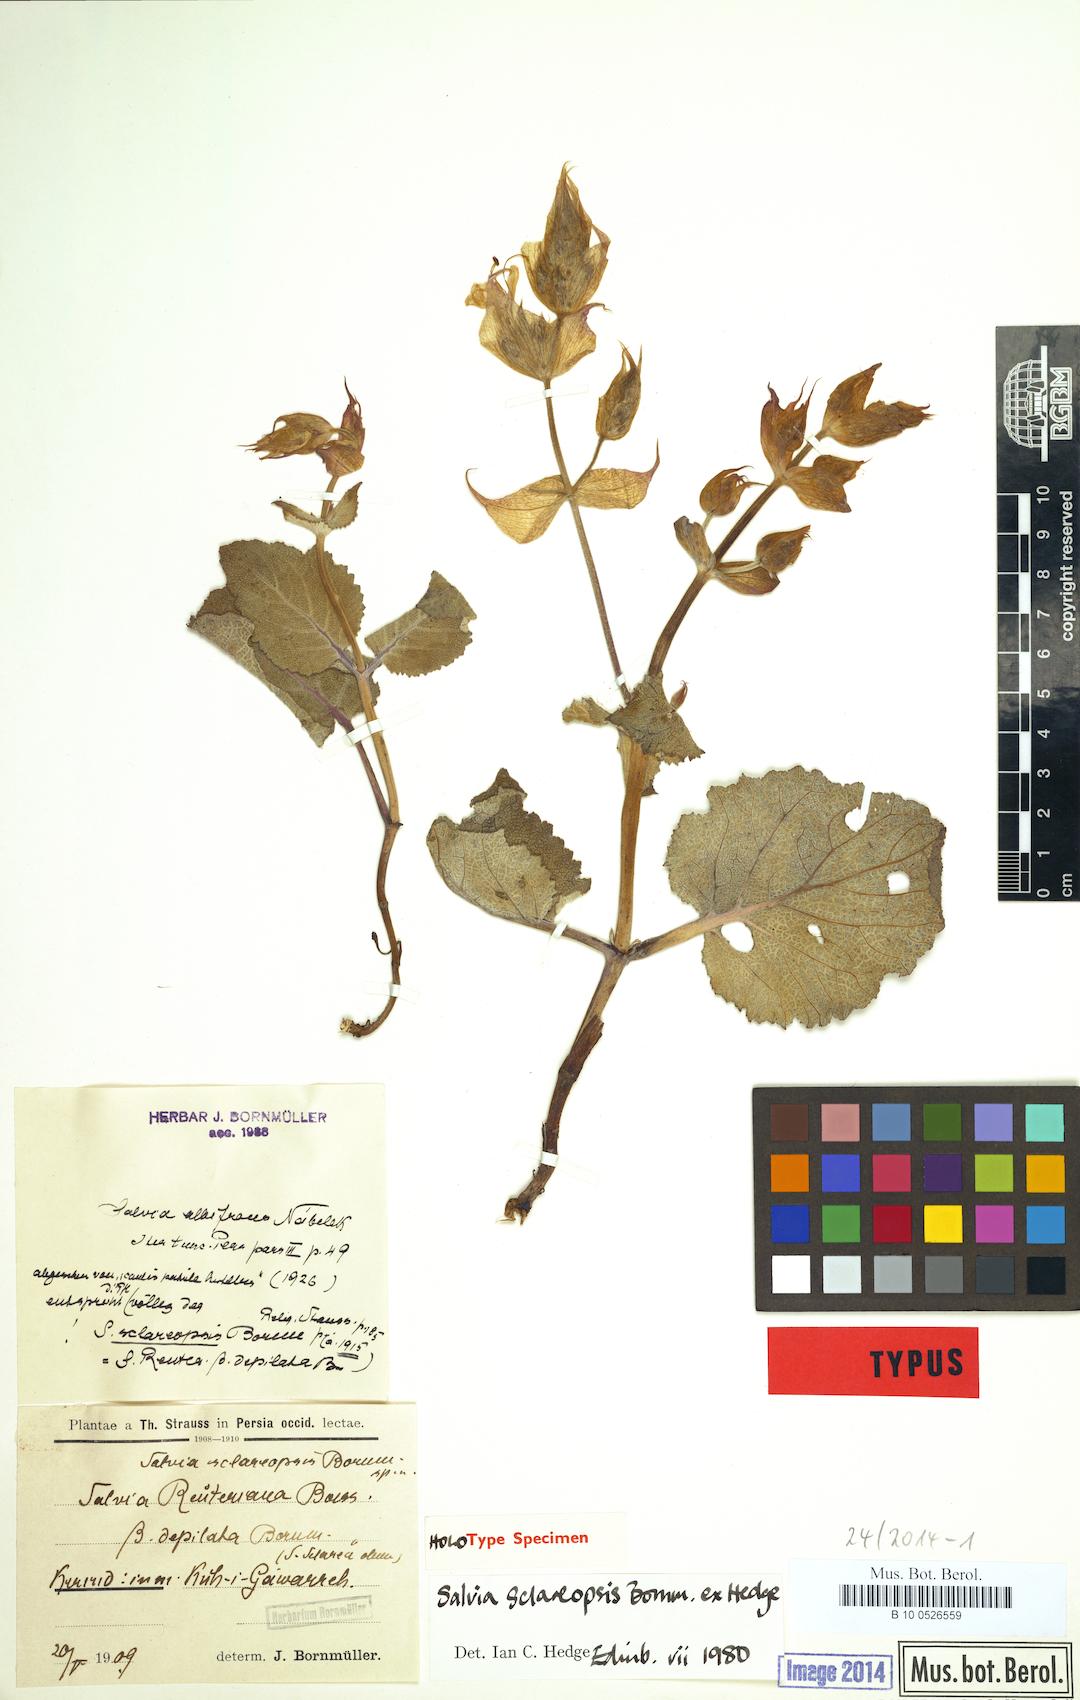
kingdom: Plantae
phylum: Tracheophyta
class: Magnoliopsida
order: Lamiales
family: Lamiaceae
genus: Salvia
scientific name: Salvia sclareopsis
